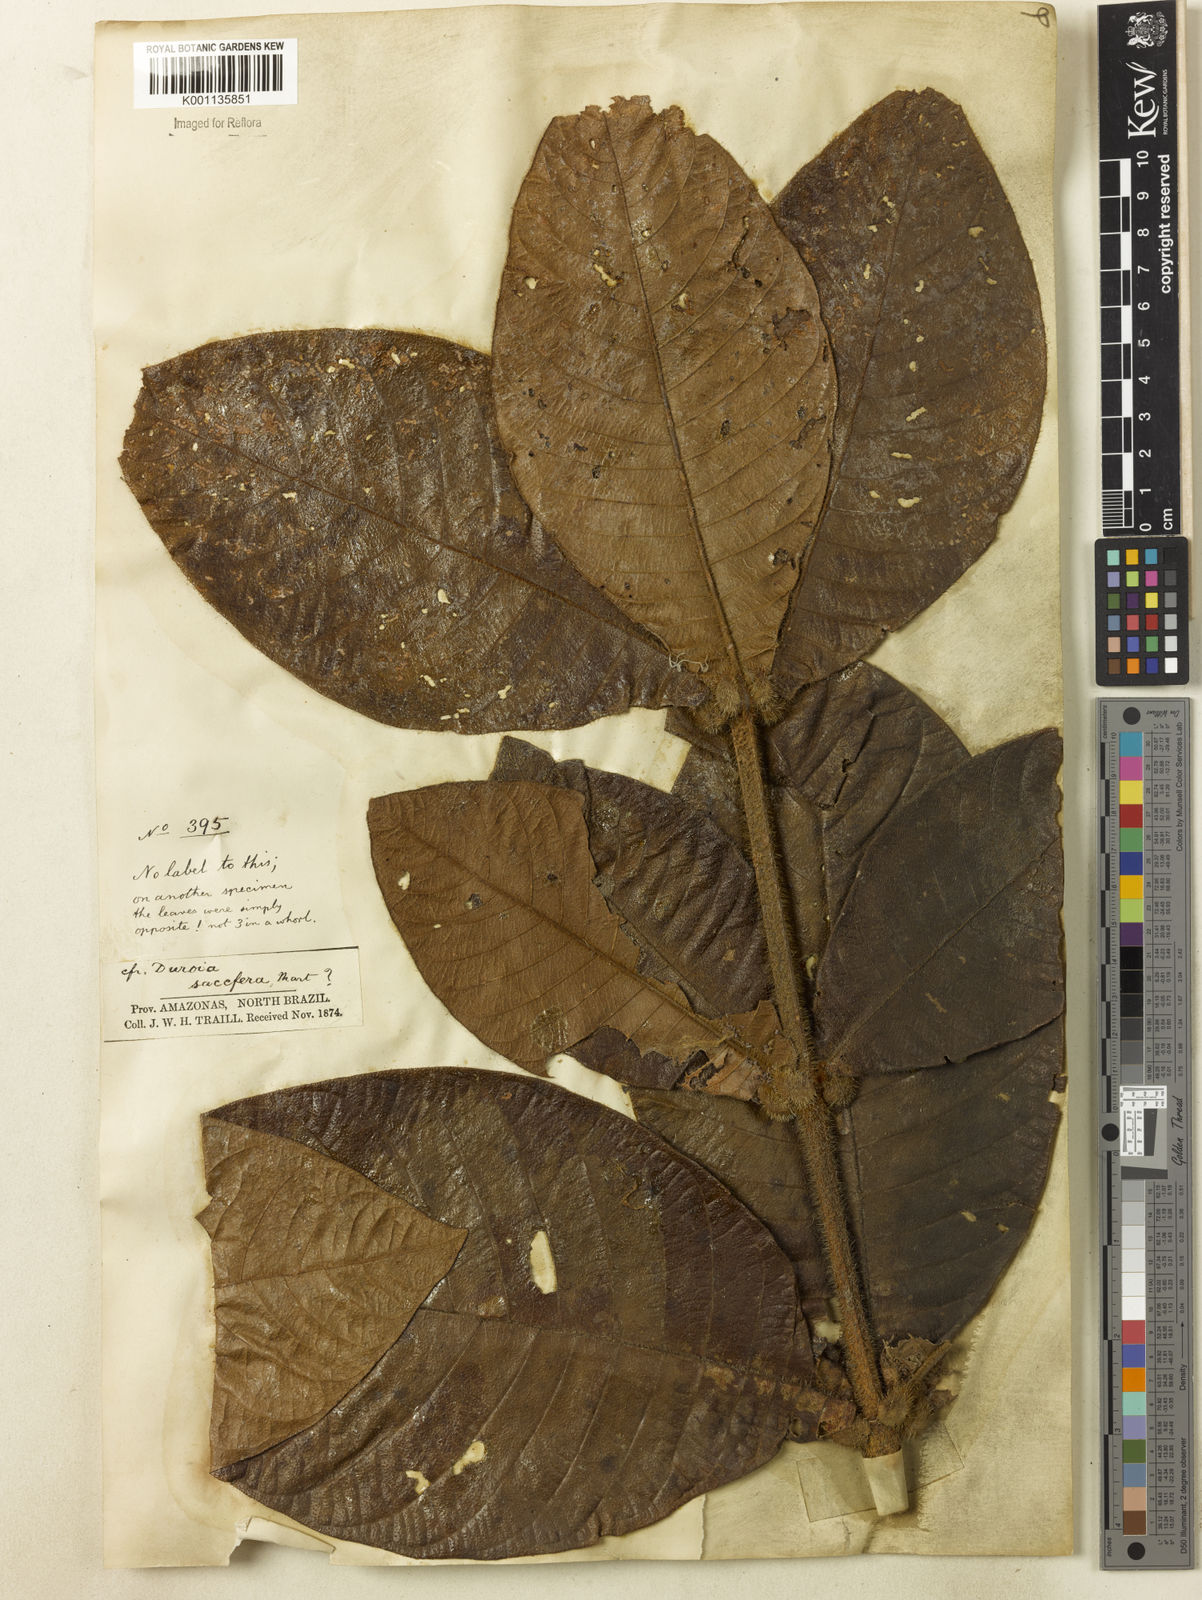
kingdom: Plantae
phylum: Tracheophyta
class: Magnoliopsida
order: Gentianales
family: Rubiaceae
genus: Duroia
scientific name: Duroia saccifera
